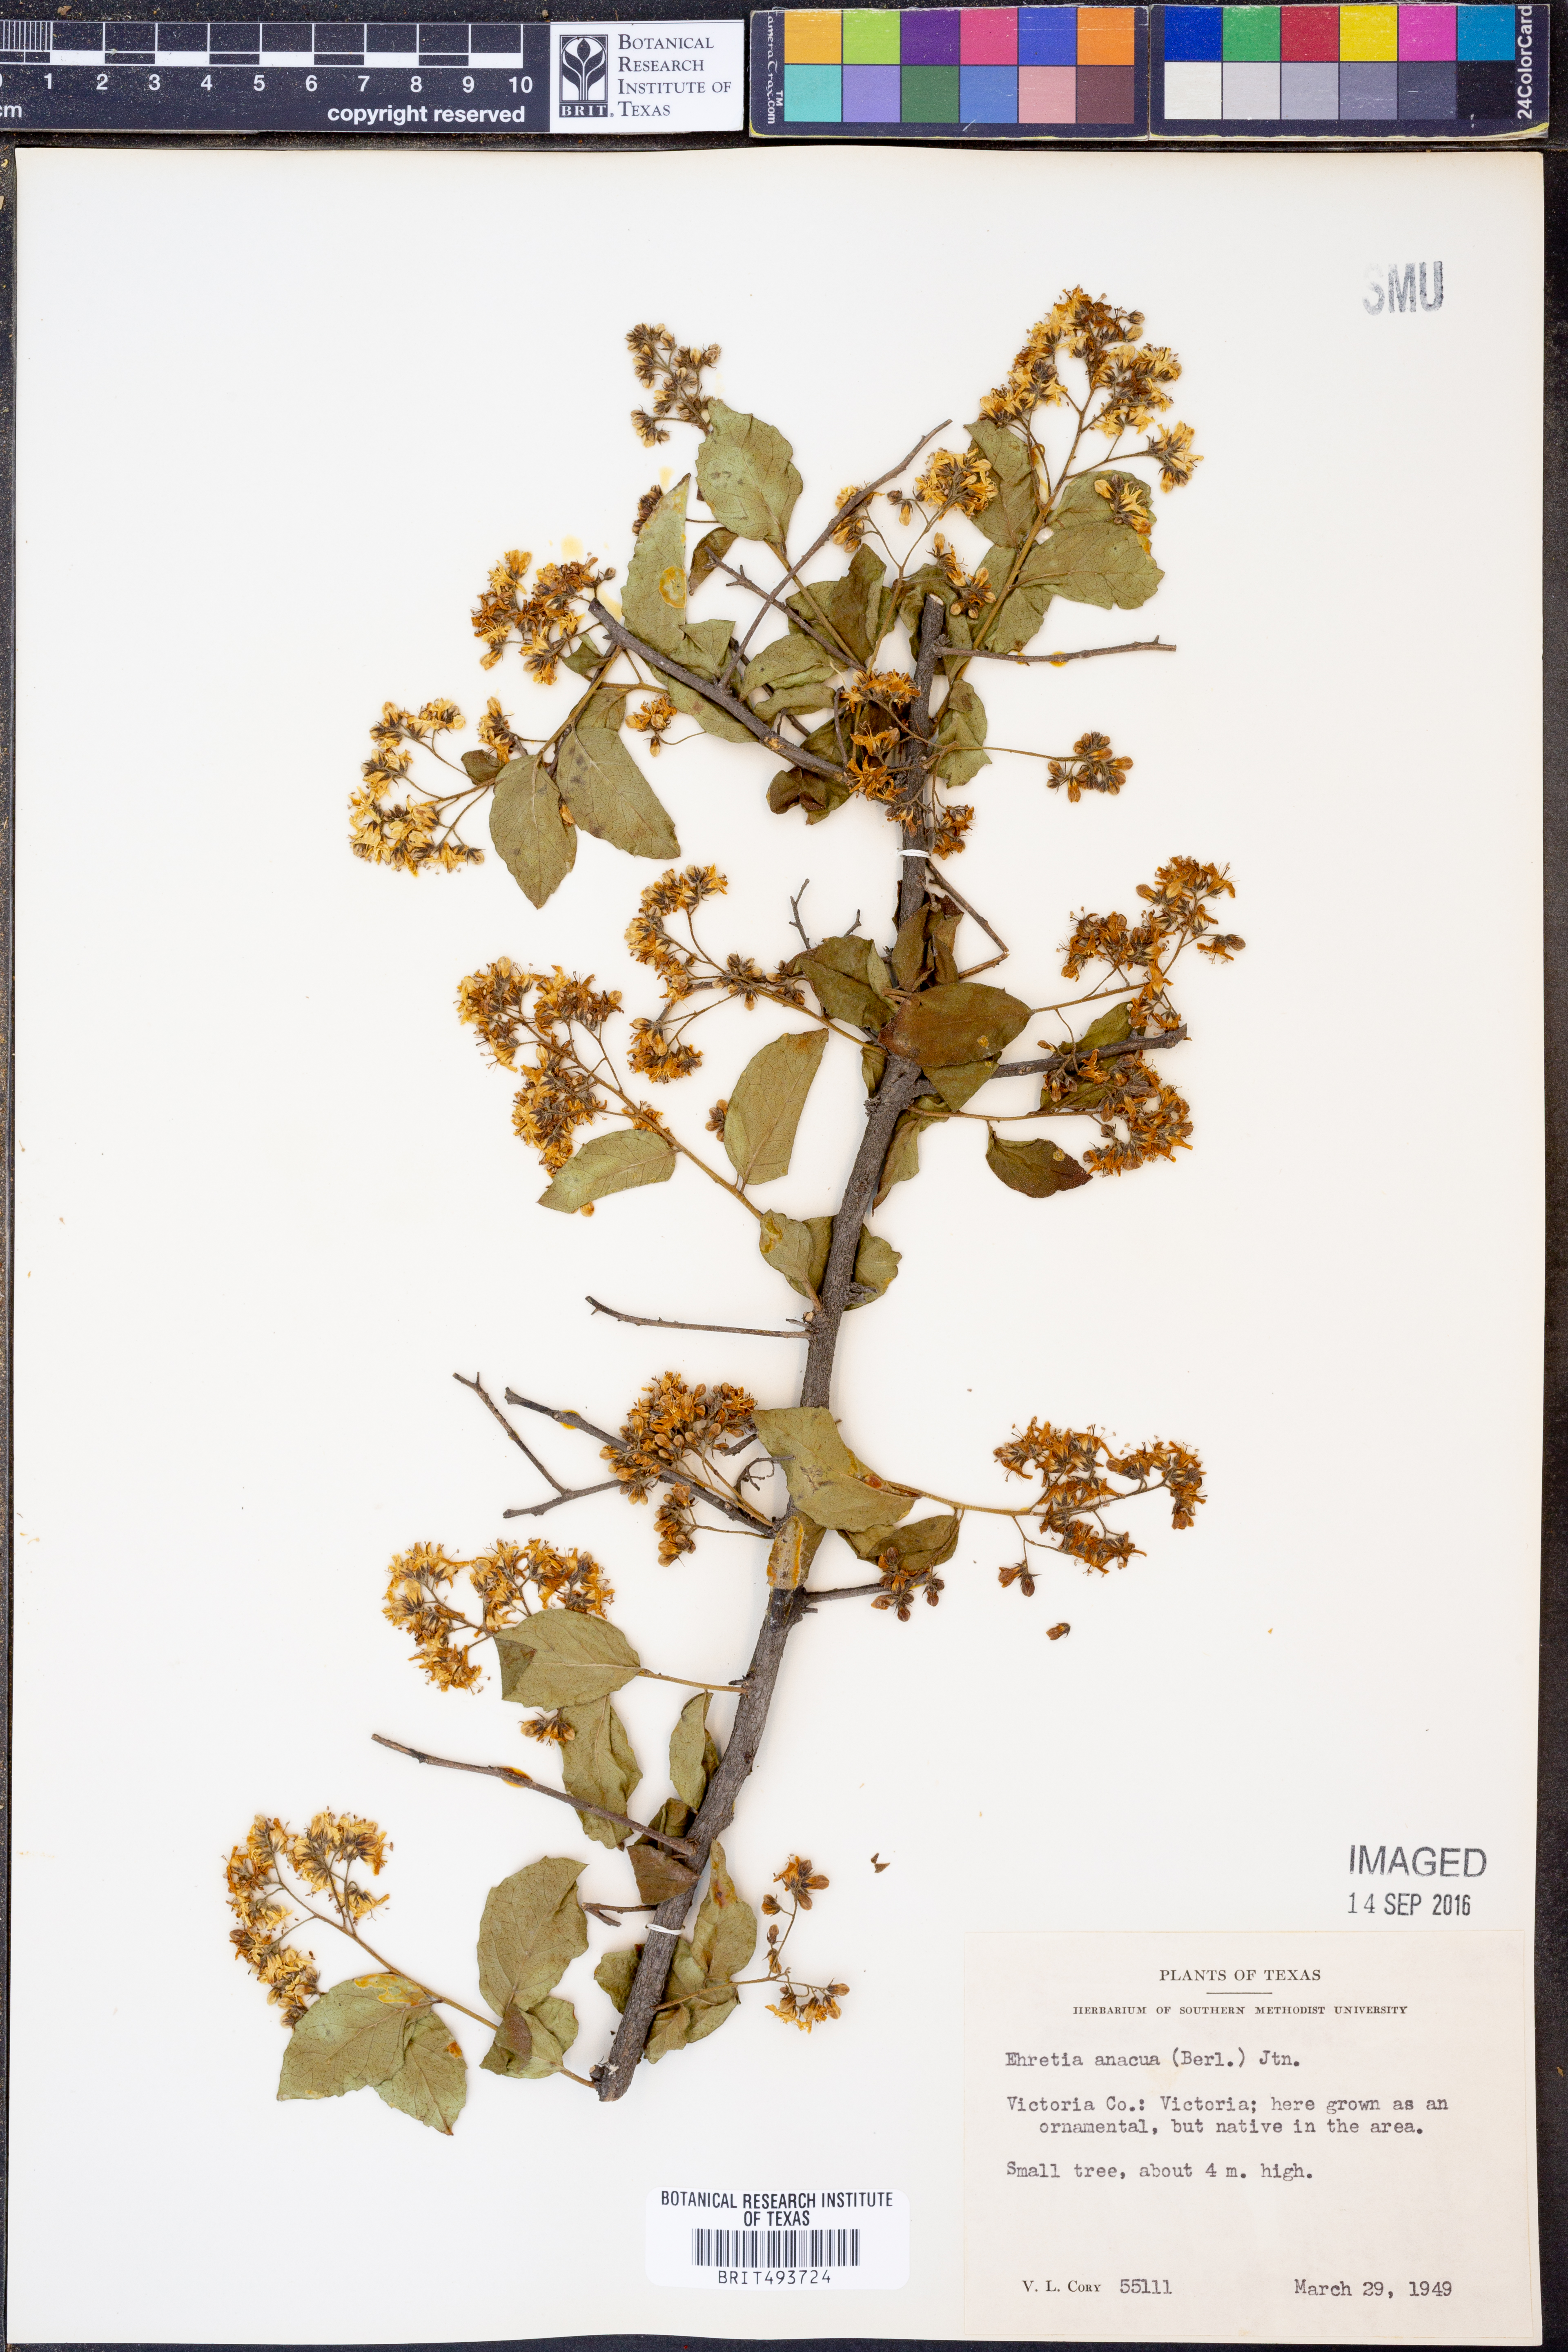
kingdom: Plantae
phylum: Tracheophyta
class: Magnoliopsida
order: Boraginales
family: Ehretiaceae
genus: Ehretia
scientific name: Ehretia anacua
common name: Sugarberry
